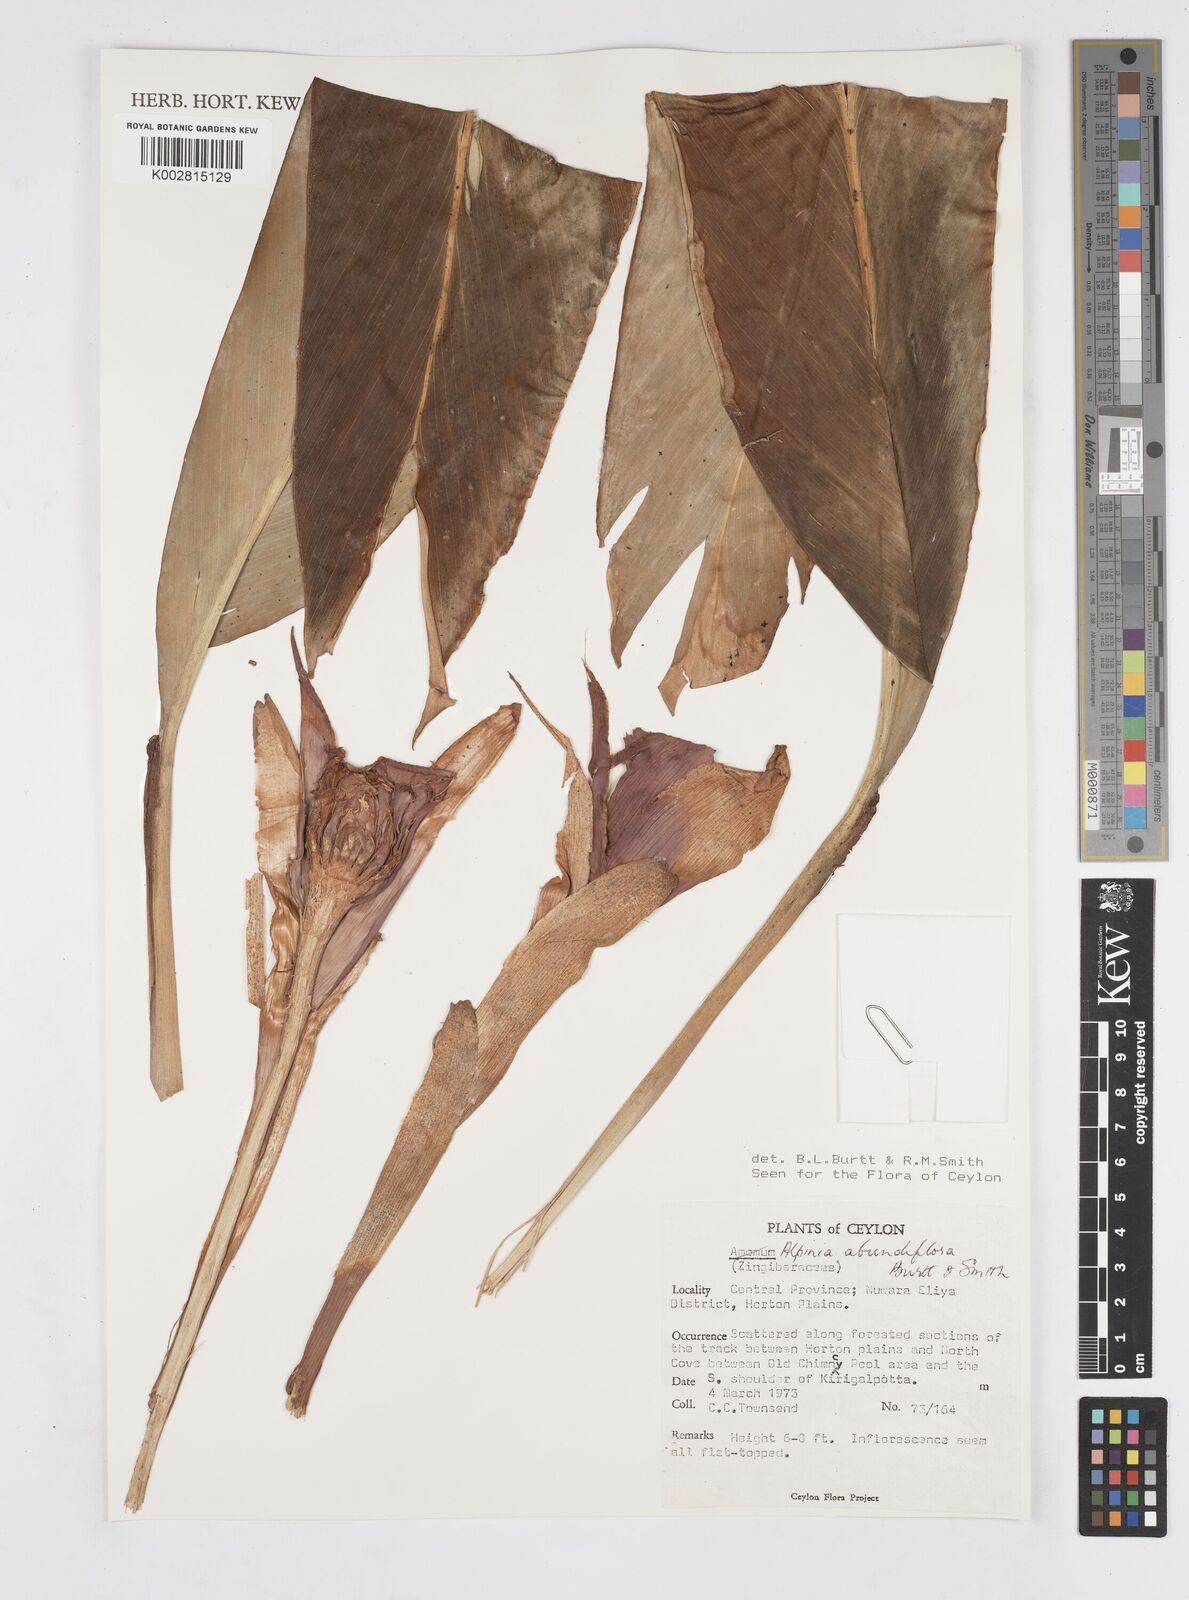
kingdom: Plantae
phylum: Tracheophyta
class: Liliopsida
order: Zingiberales
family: Zingiberaceae
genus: Alpinia
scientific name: Alpinia abundiflora
